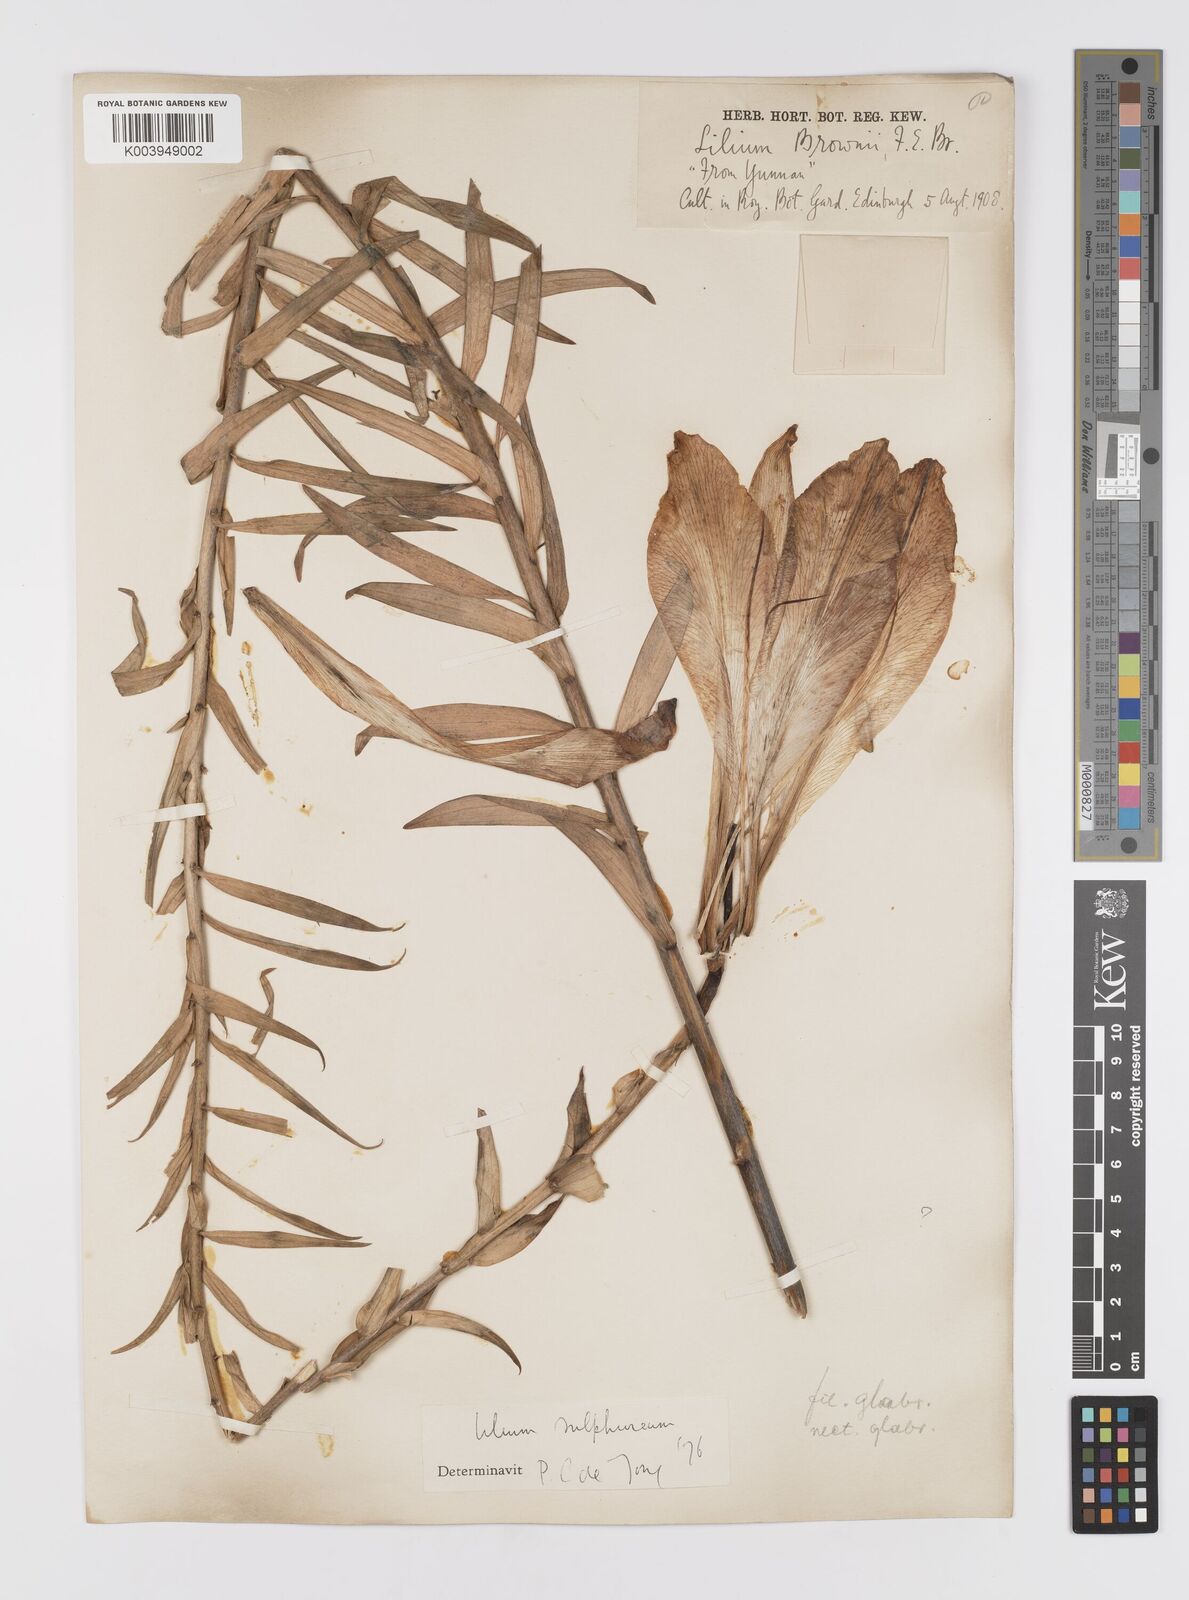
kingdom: Plantae
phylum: Tracheophyta
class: Liliopsida
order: Liliales
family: Liliaceae
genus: Lilium
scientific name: Lilium
